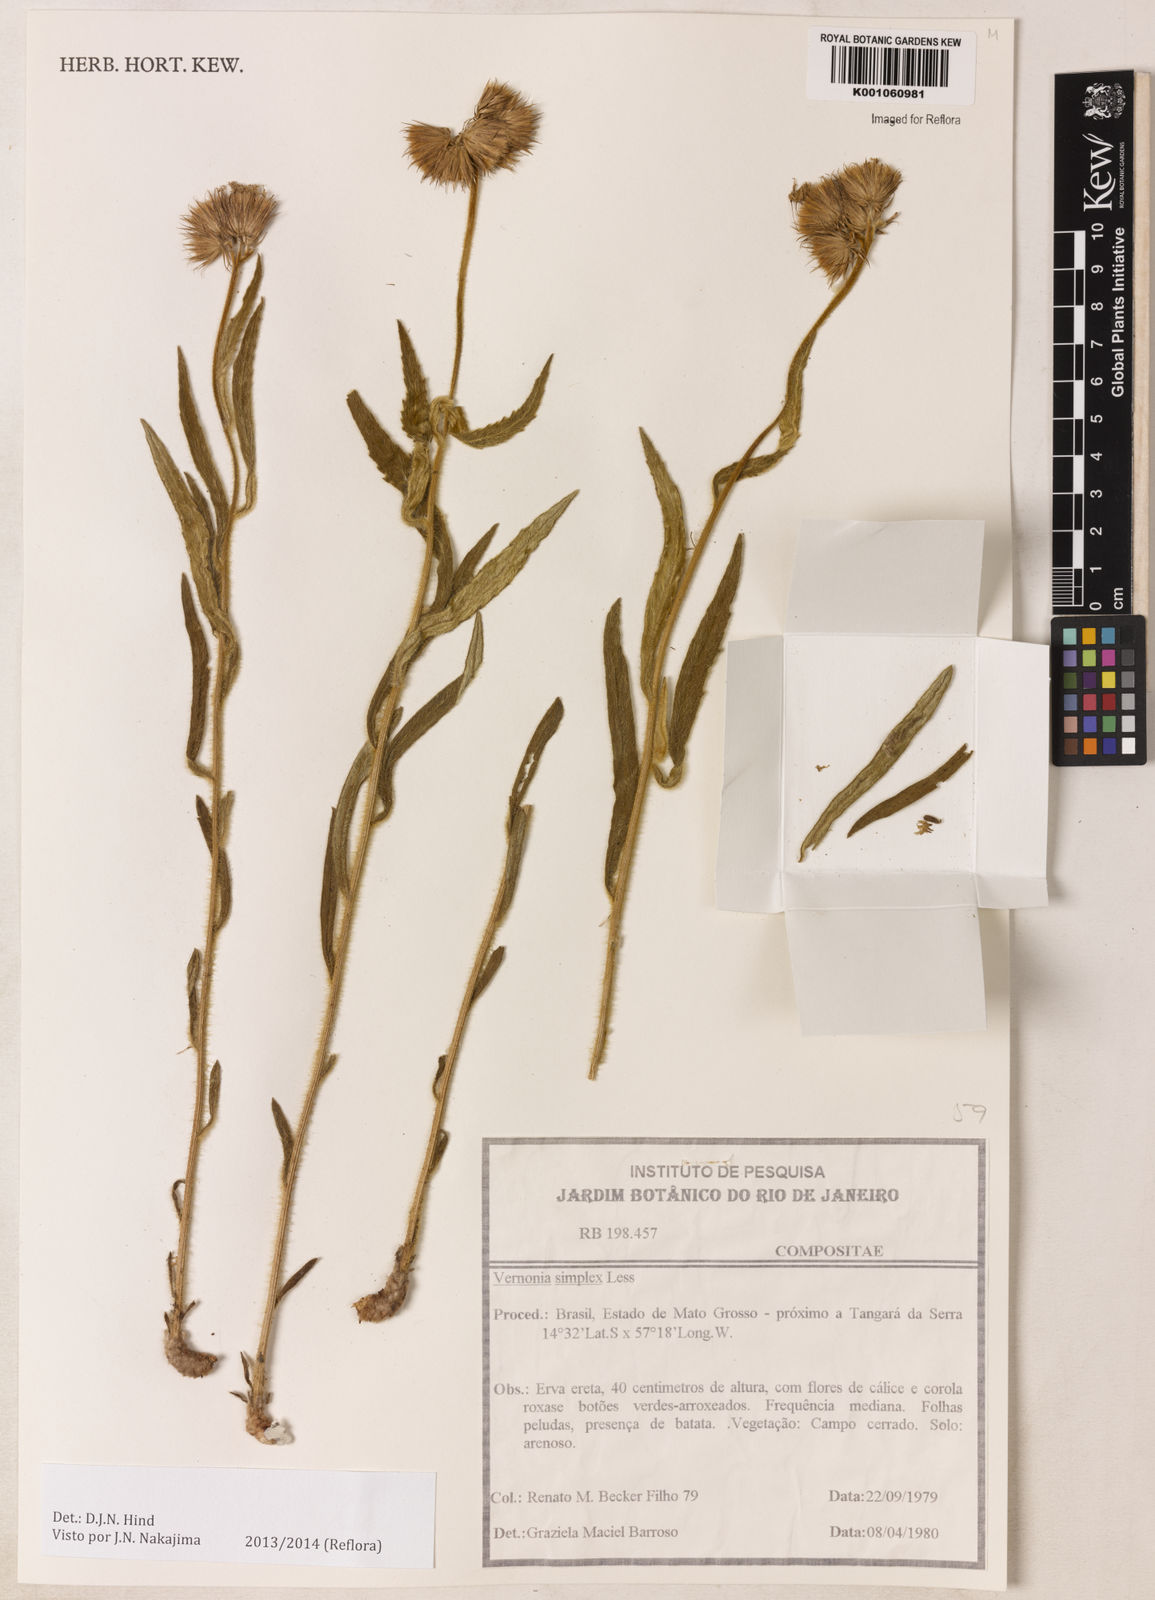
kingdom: Plantae
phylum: Tracheophyta
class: Magnoliopsida
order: Asterales
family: Asteraceae
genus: Chrysolaena
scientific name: Chrysolaena simplex
